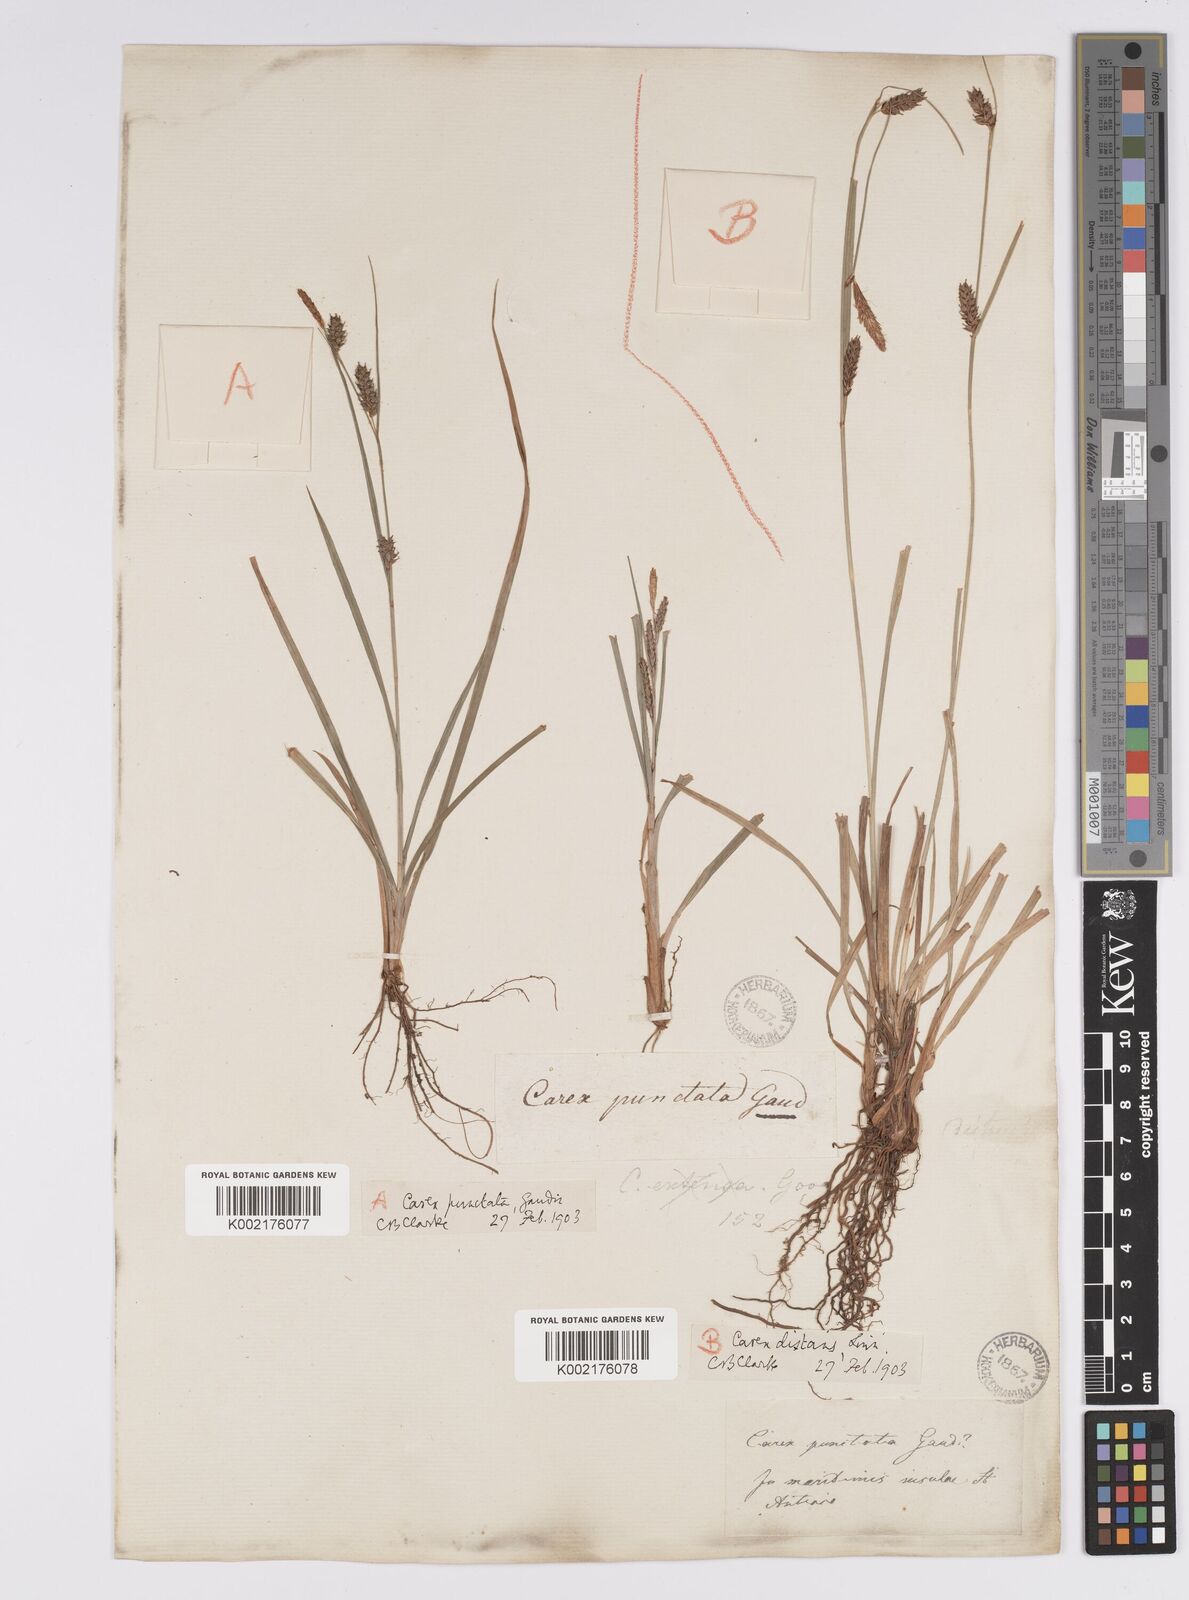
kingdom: Plantae
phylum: Tracheophyta
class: Liliopsida
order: Poales
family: Cyperaceae
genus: Carex
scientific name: Carex punctata
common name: Dotted sedge
